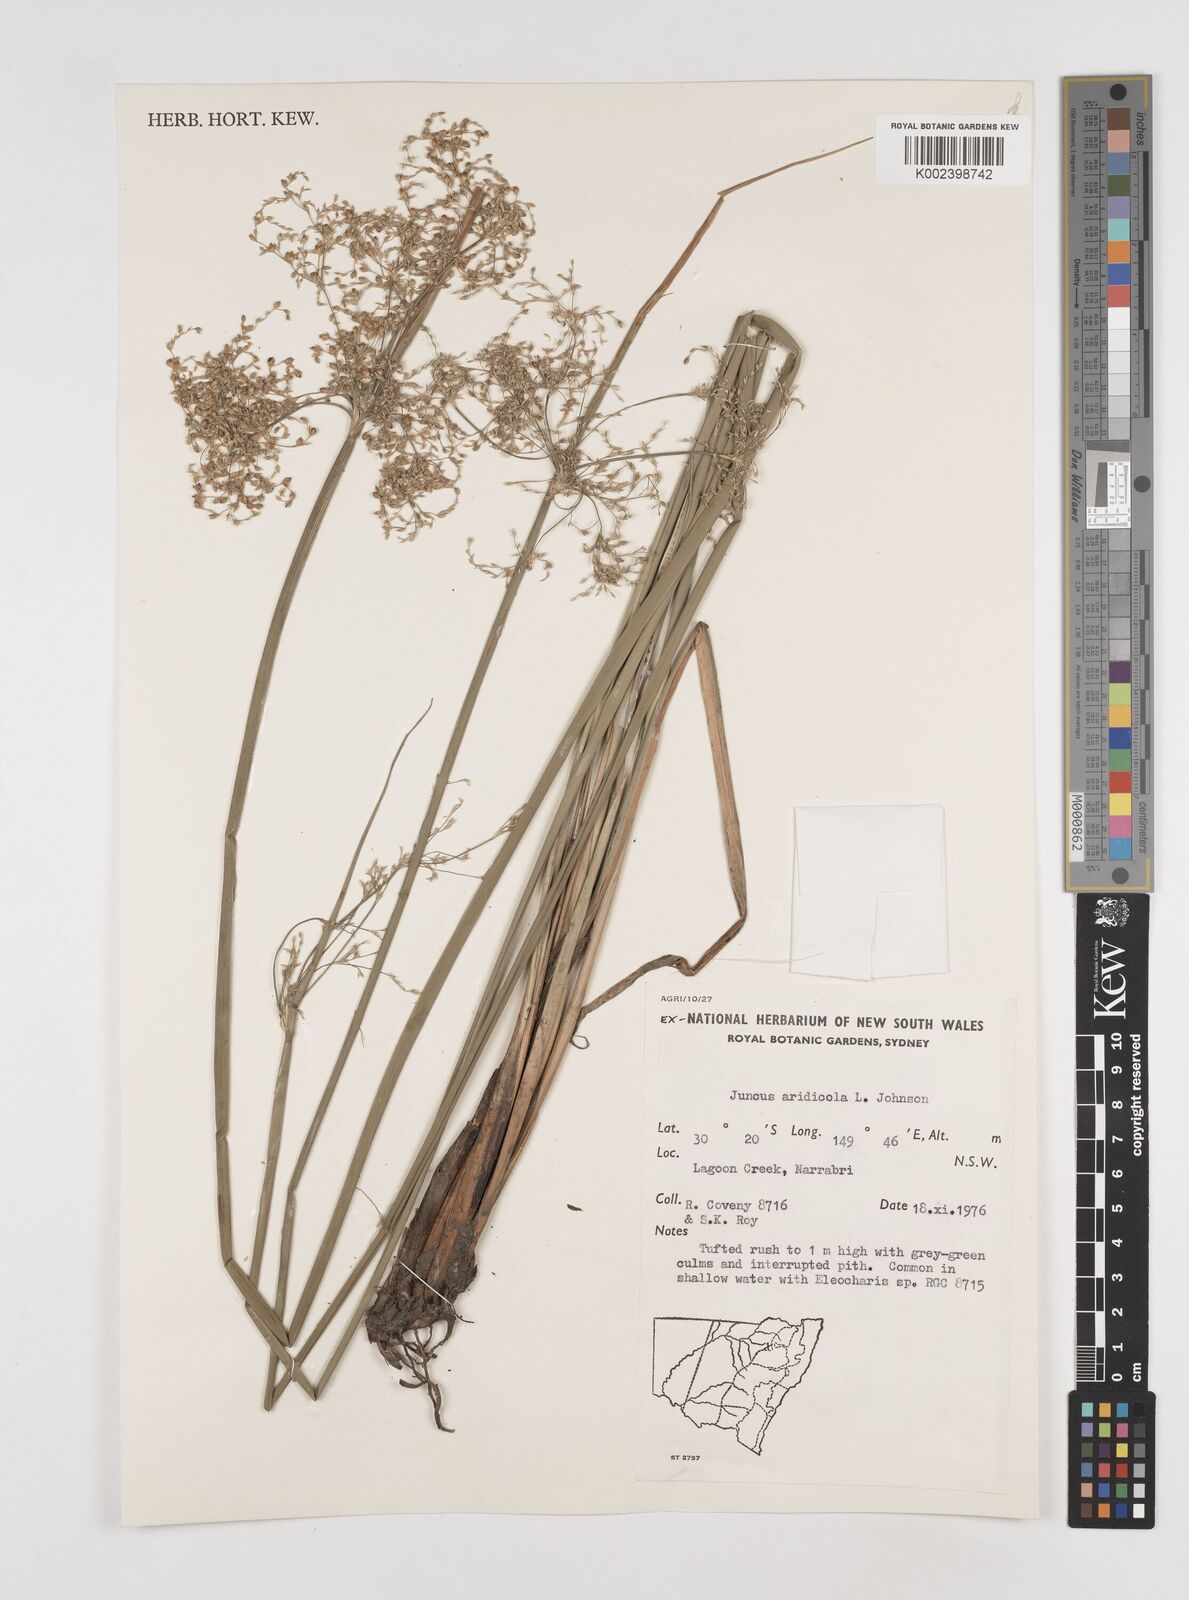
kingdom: Plantae
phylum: Tracheophyta
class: Liliopsida
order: Poales
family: Juncaceae
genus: Juncus
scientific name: Juncus
